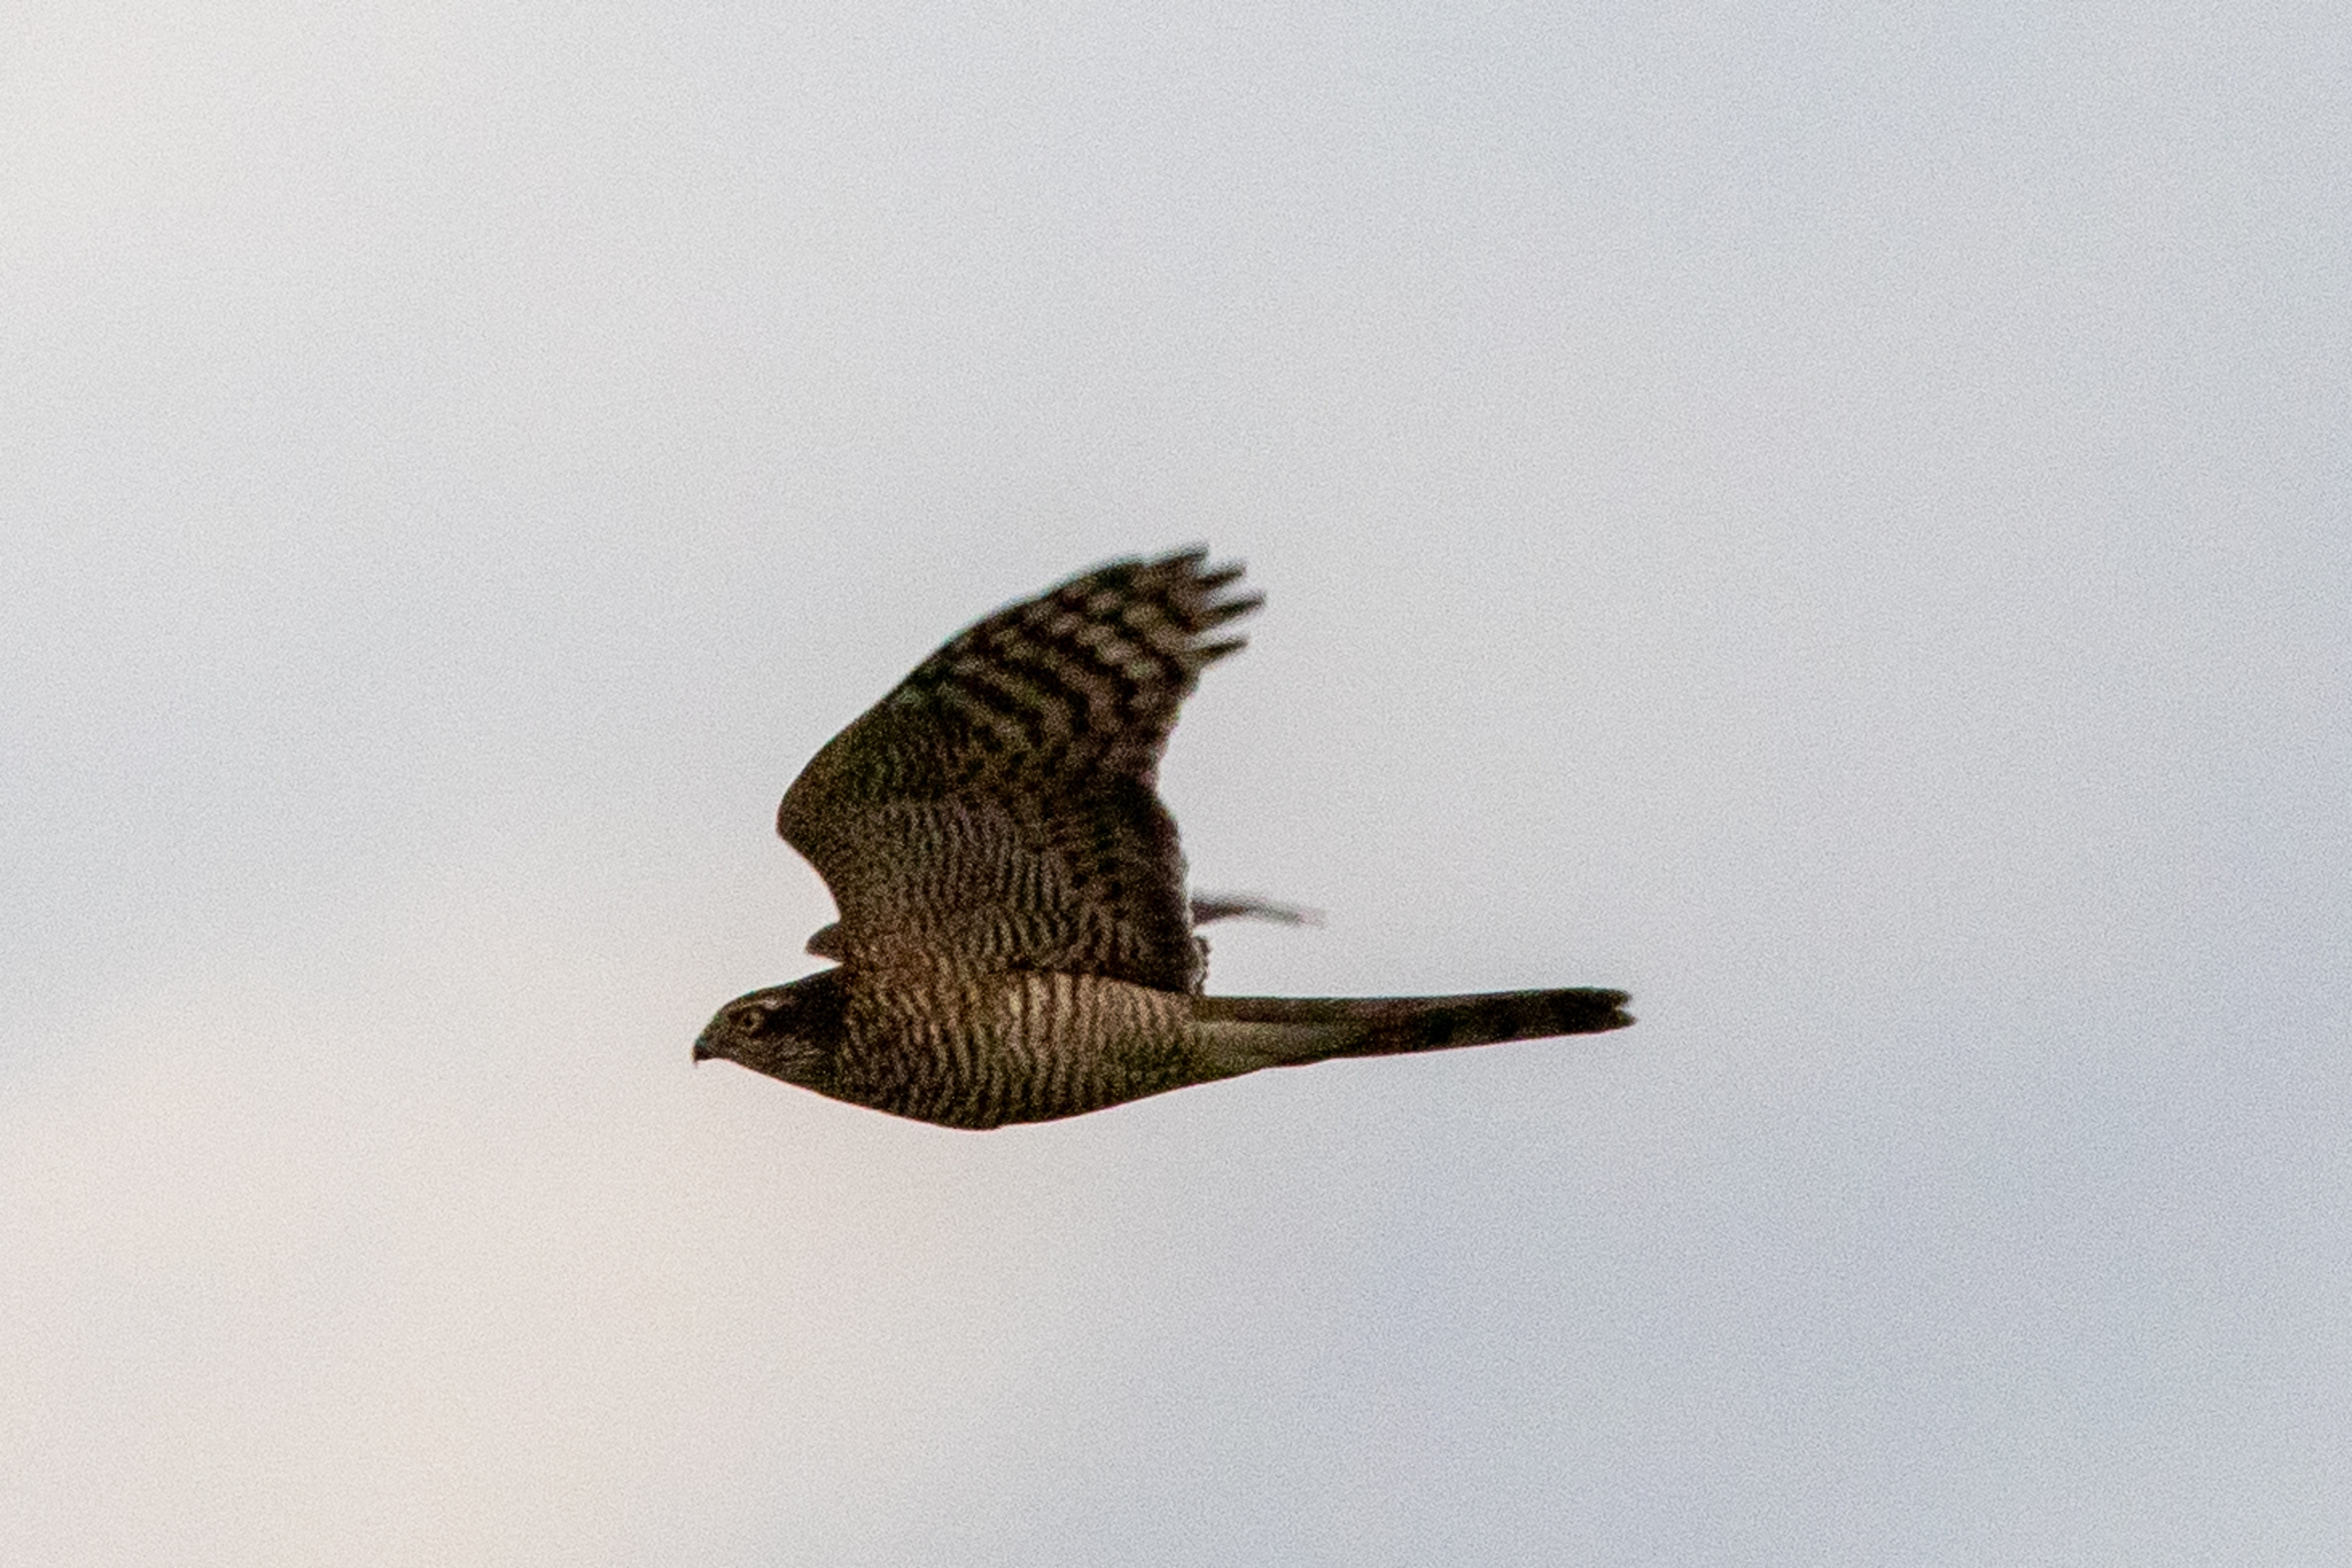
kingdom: Animalia
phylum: Chordata
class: Aves
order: Accipitriformes
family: Accipitridae
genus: Accipiter
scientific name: Accipiter nisus
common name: Spurvehøg
